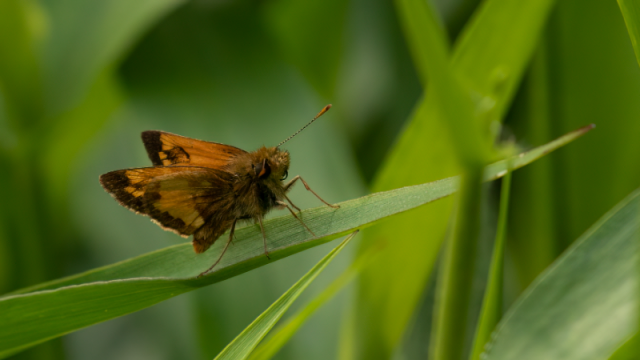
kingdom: Animalia
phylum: Arthropoda
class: Insecta
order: Lepidoptera
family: Hesperiidae
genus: Lon
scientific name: Lon hobomok
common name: Hobomok Skipper
